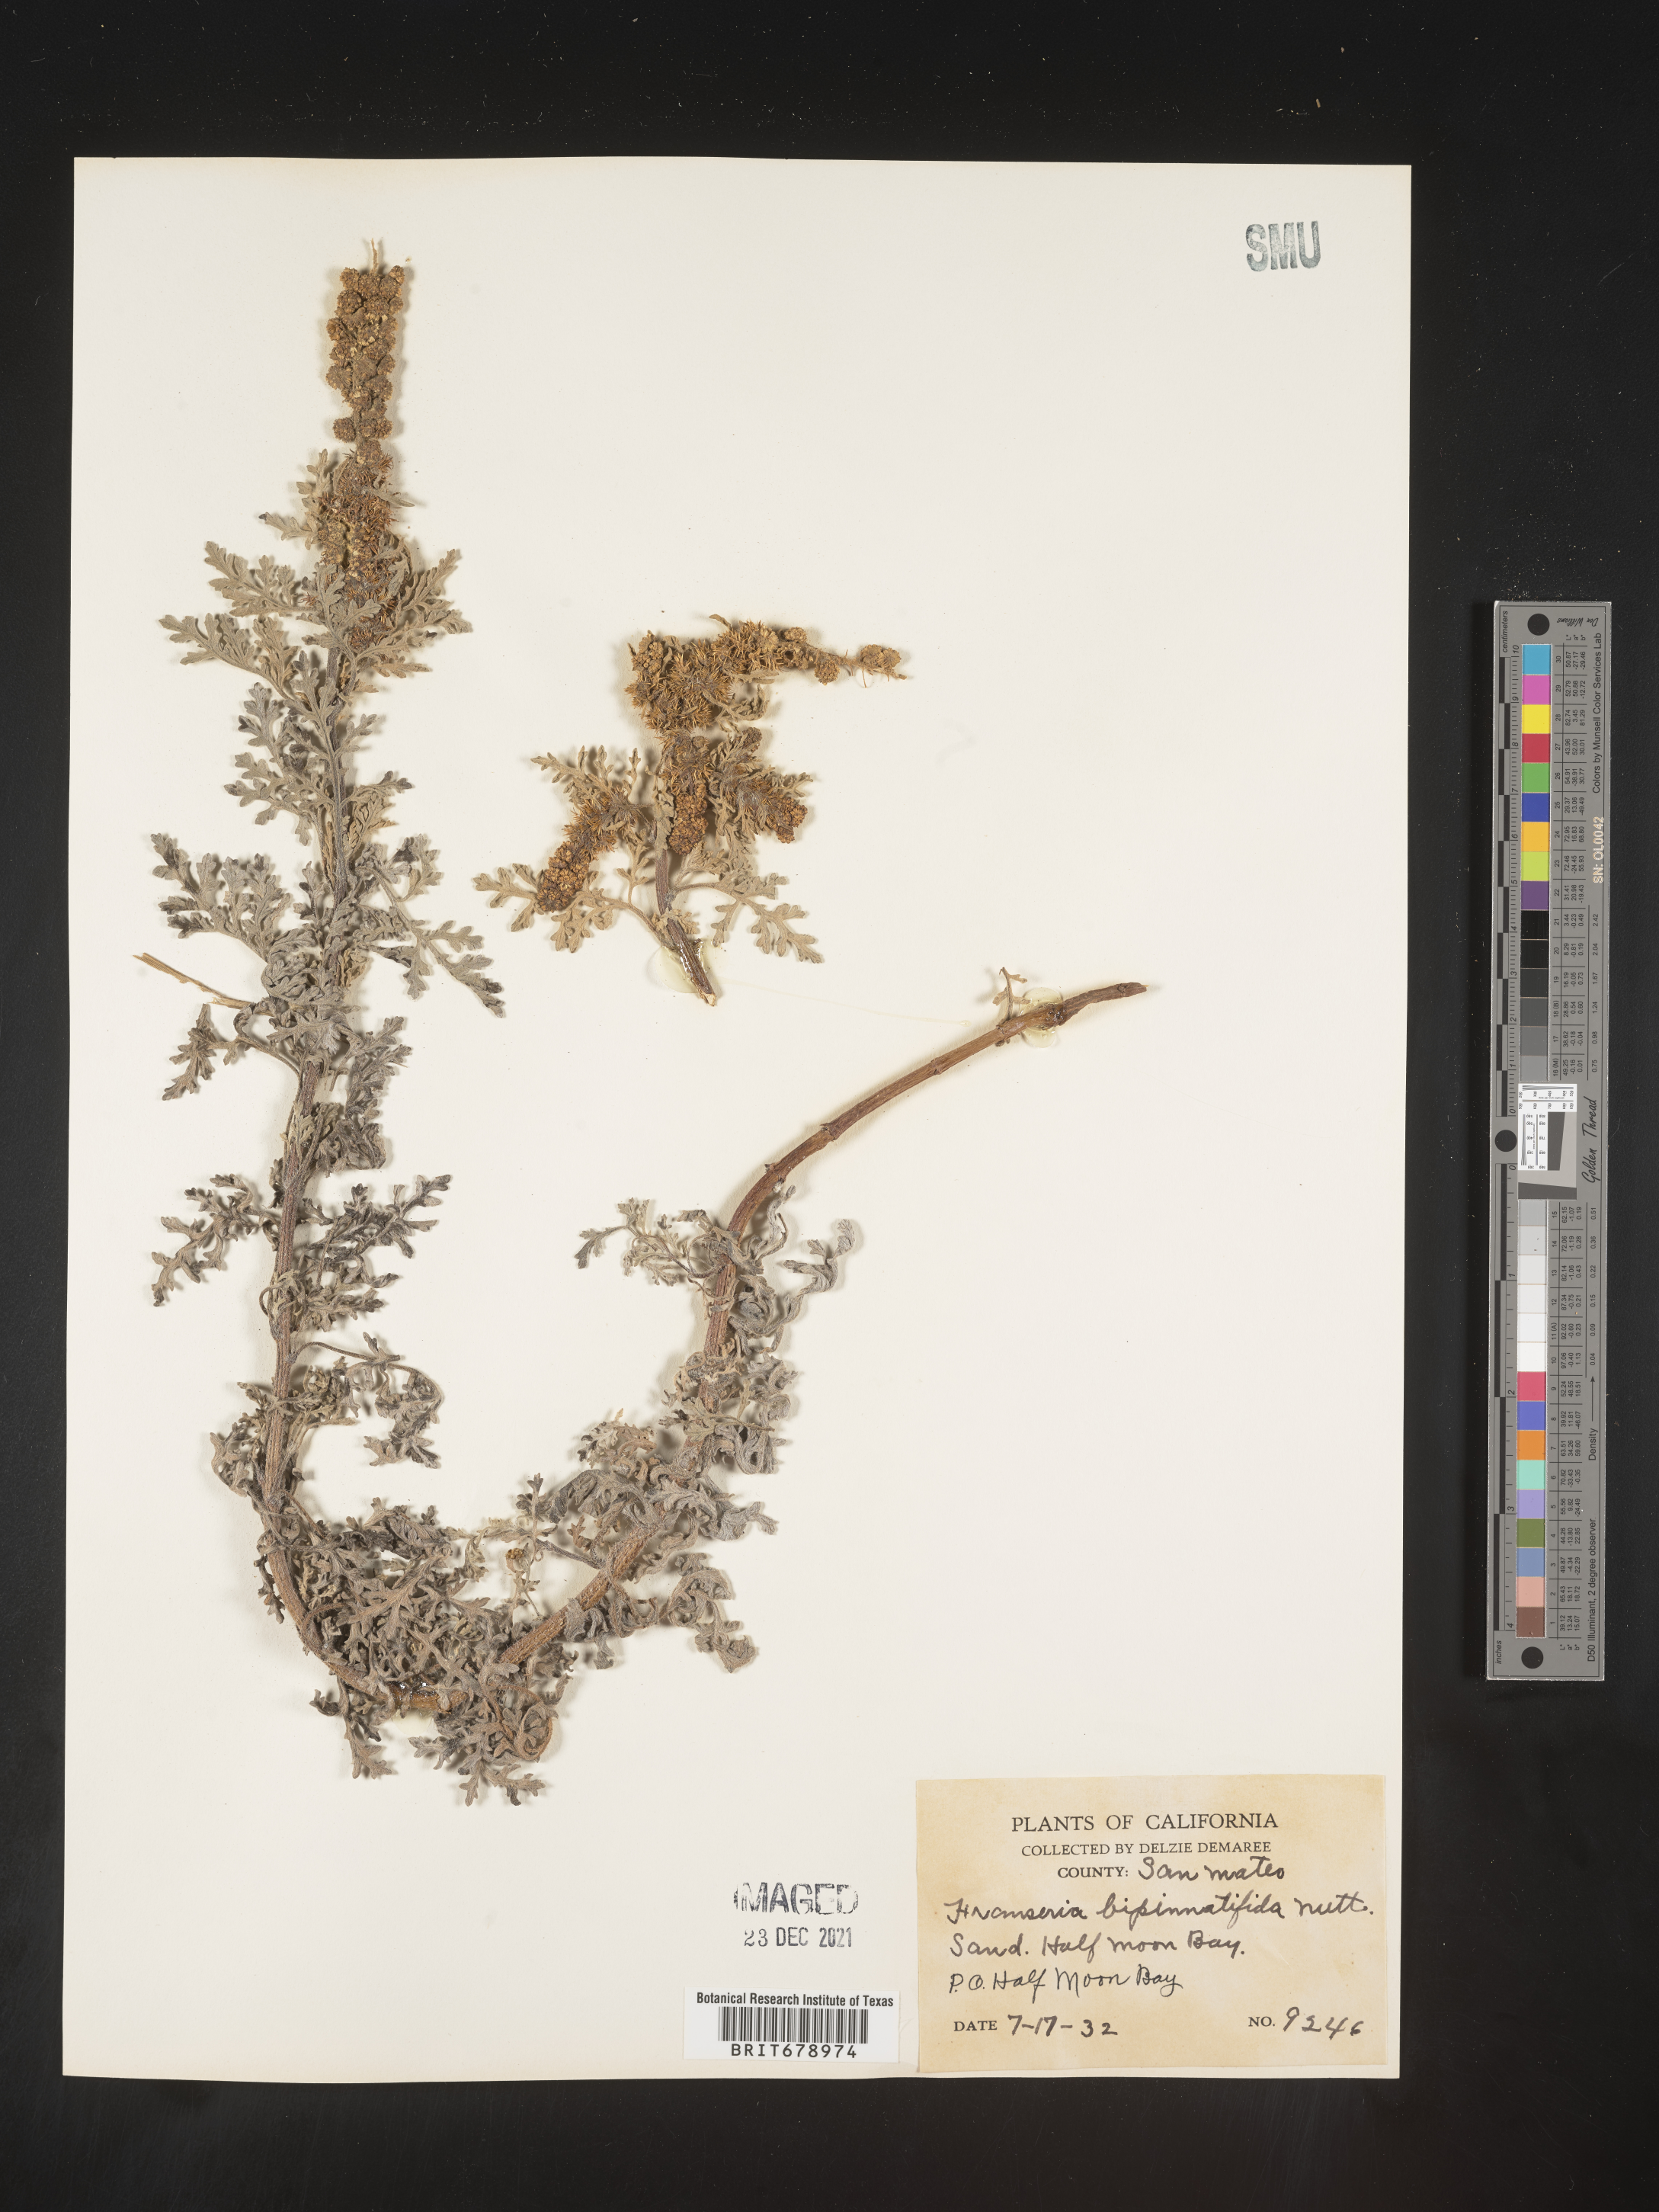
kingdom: Plantae
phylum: Tracheophyta
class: Magnoliopsida
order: Asterales
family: Asteraceae
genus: Ambrosia
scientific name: Ambrosia camphorata
